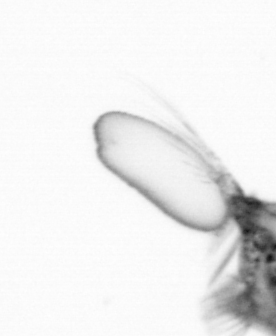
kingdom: Animalia
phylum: Arthropoda
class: Copepoda
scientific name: Copepoda
